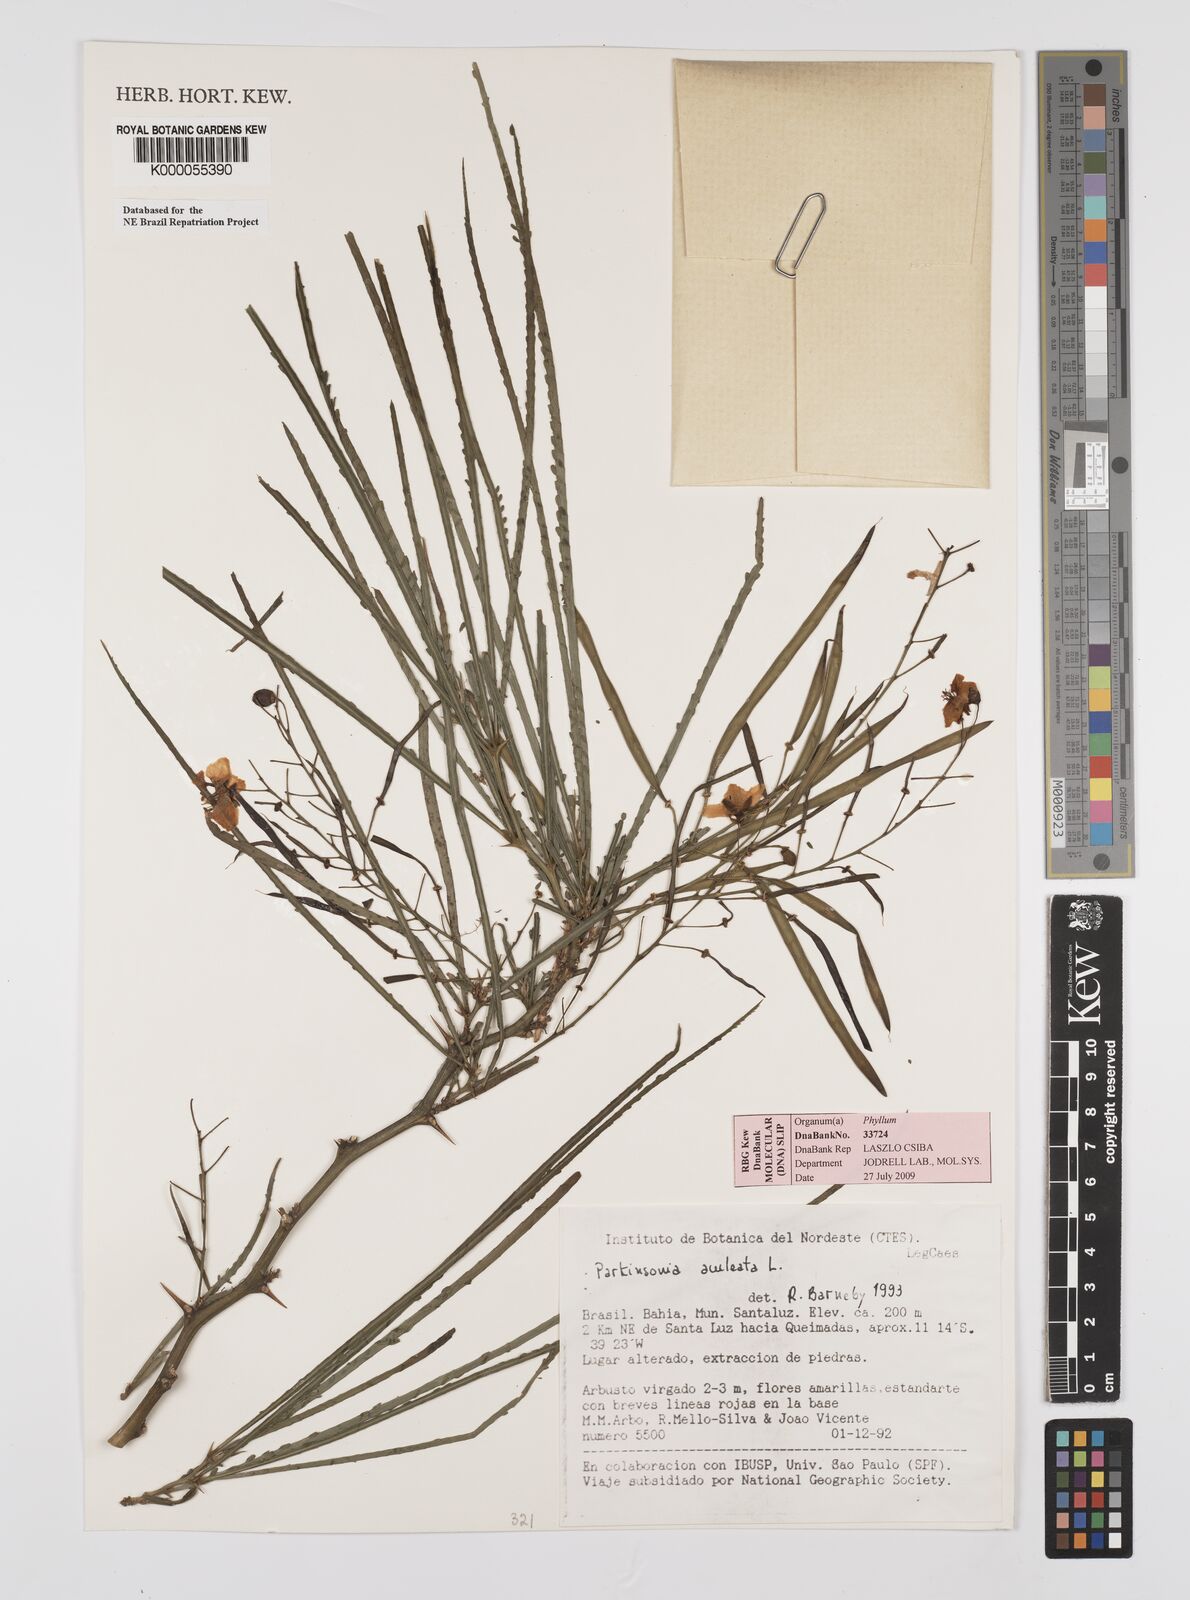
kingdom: Plantae
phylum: Tracheophyta
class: Magnoliopsida
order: Fabales
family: Fabaceae
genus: Parkinsonia
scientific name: Parkinsonia aculeata
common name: Jerusalem thorn
